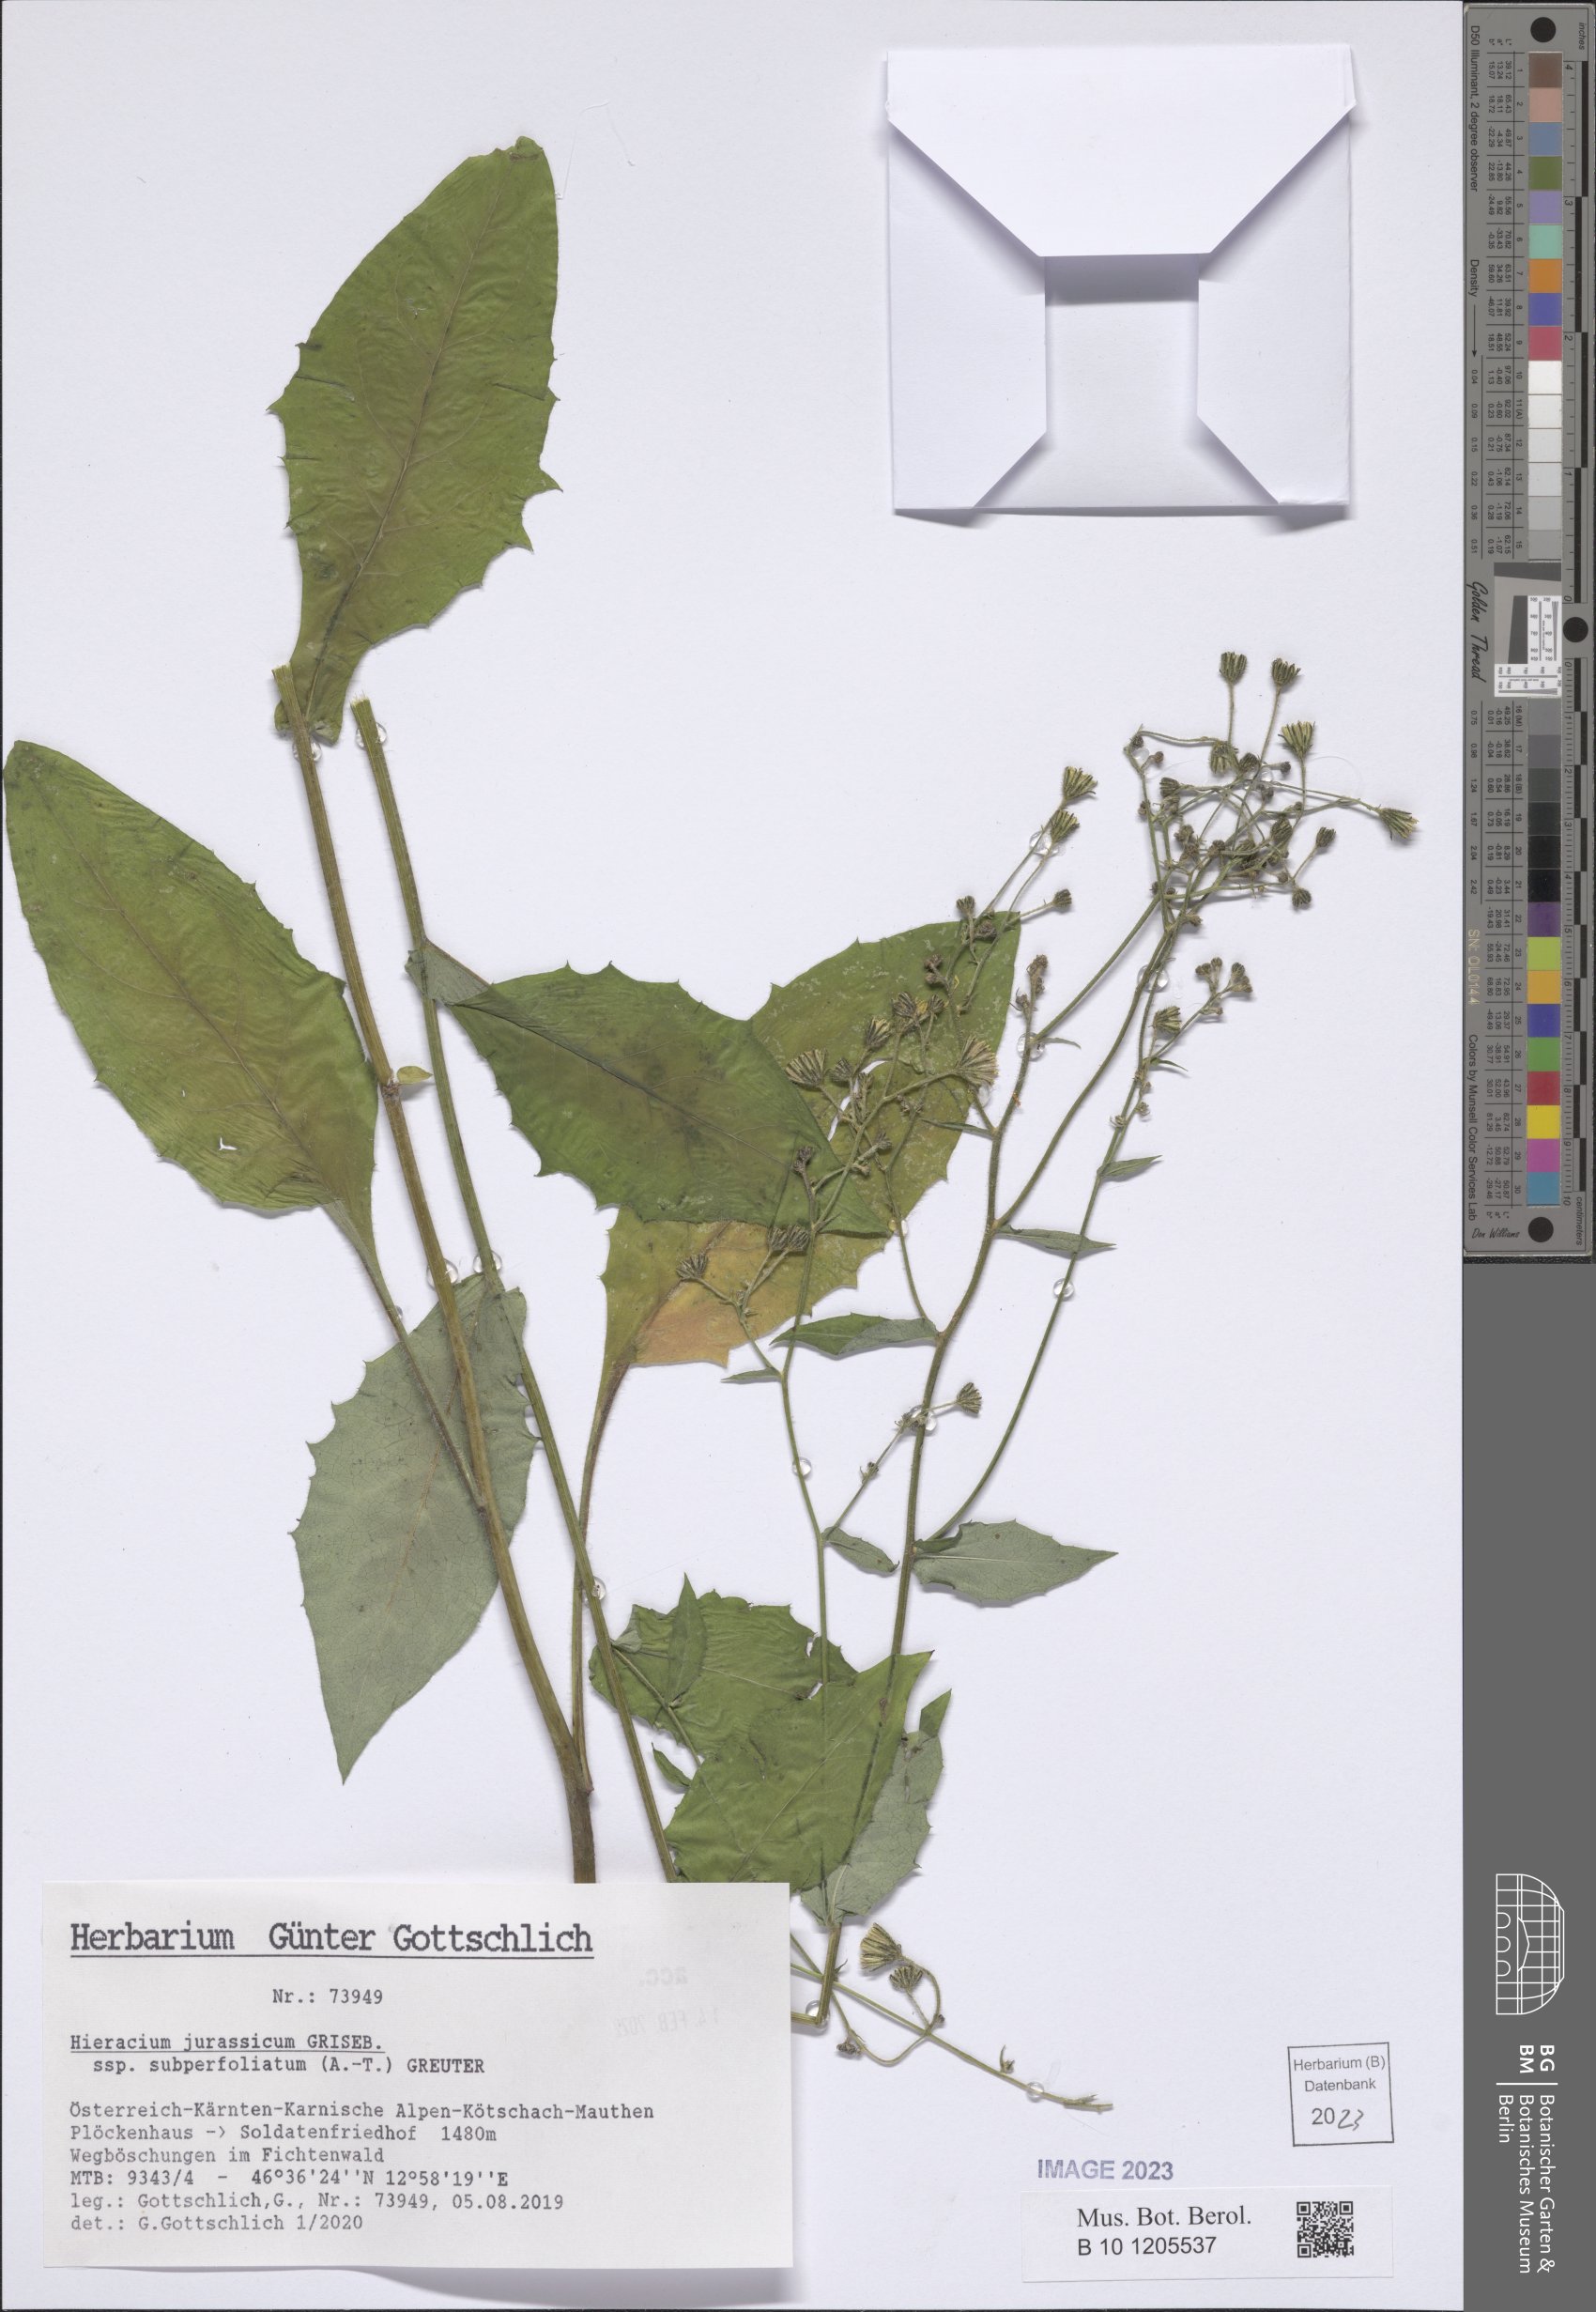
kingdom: Plantae
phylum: Tracheophyta
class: Magnoliopsida
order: Asterales
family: Asteraceae
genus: Hieracium
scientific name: Hieracium jurassicum
